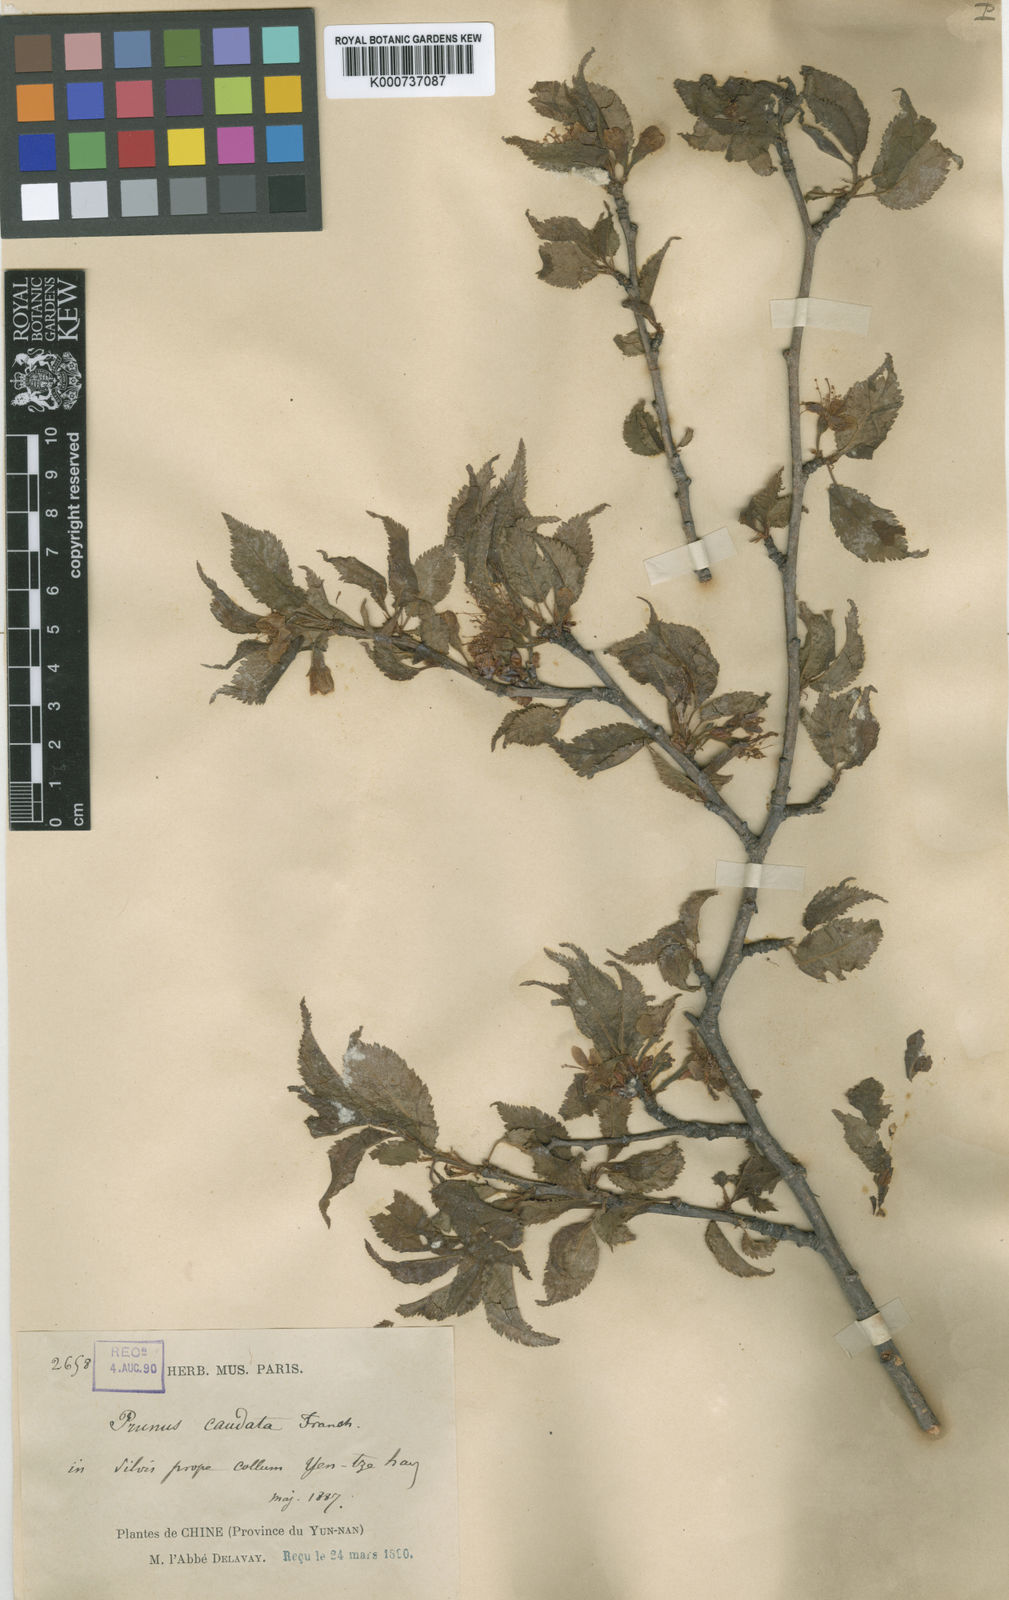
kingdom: Plantae
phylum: Tracheophyta
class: Magnoliopsida
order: Rosales
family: Rosaceae
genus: Prunus
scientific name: Prunus caudata
